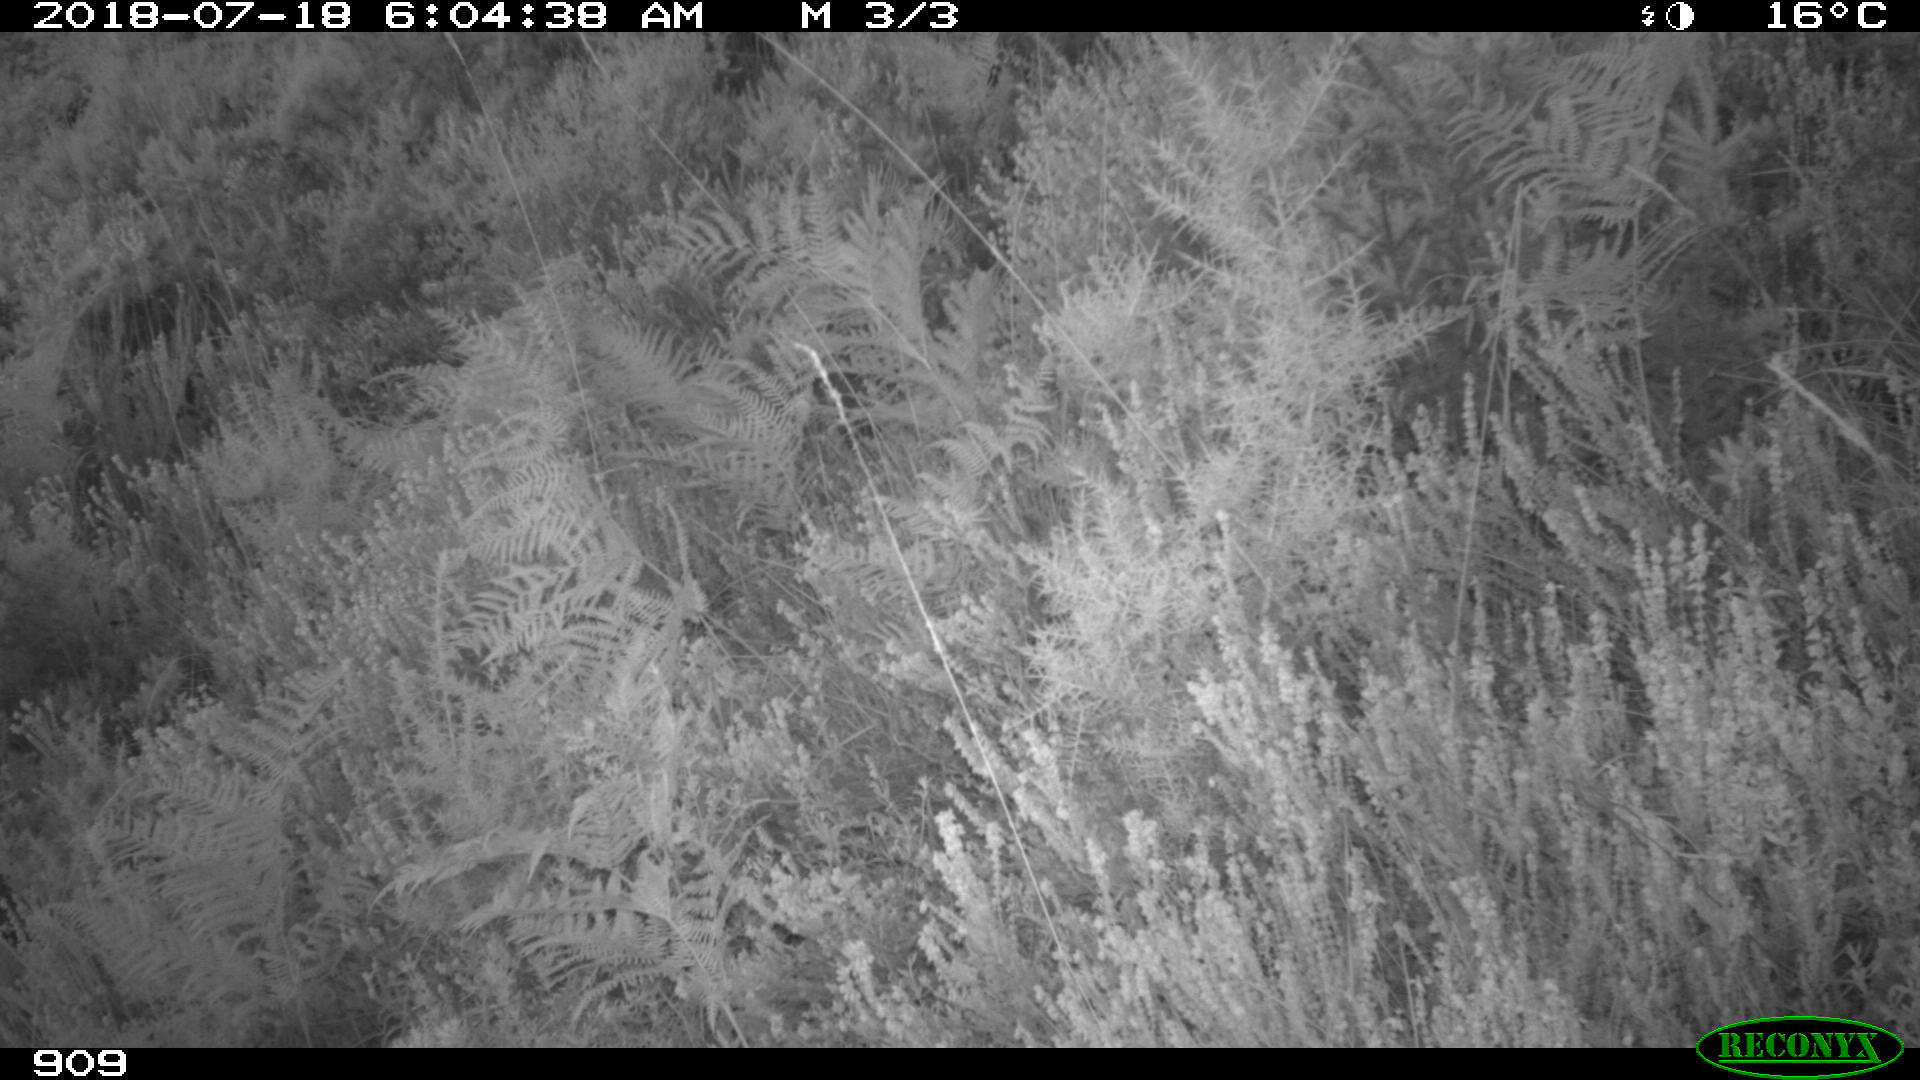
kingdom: Animalia
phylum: Chordata
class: Mammalia
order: Artiodactyla
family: Cervidae
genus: Capreolus
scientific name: Capreolus capreolus
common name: Western roe deer
